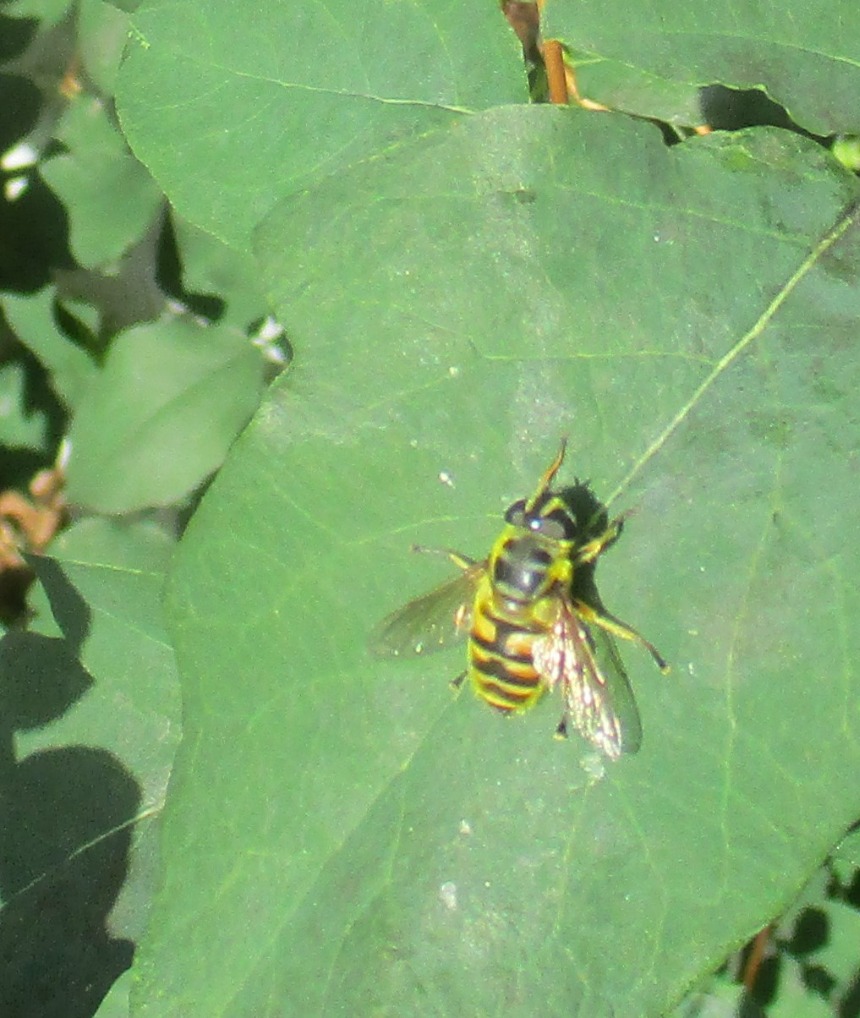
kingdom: Animalia
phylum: Arthropoda
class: Insecta
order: Diptera
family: Syrphidae
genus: Myathropa
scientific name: Myathropa florea
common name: Dødningehoved-svirreflue
